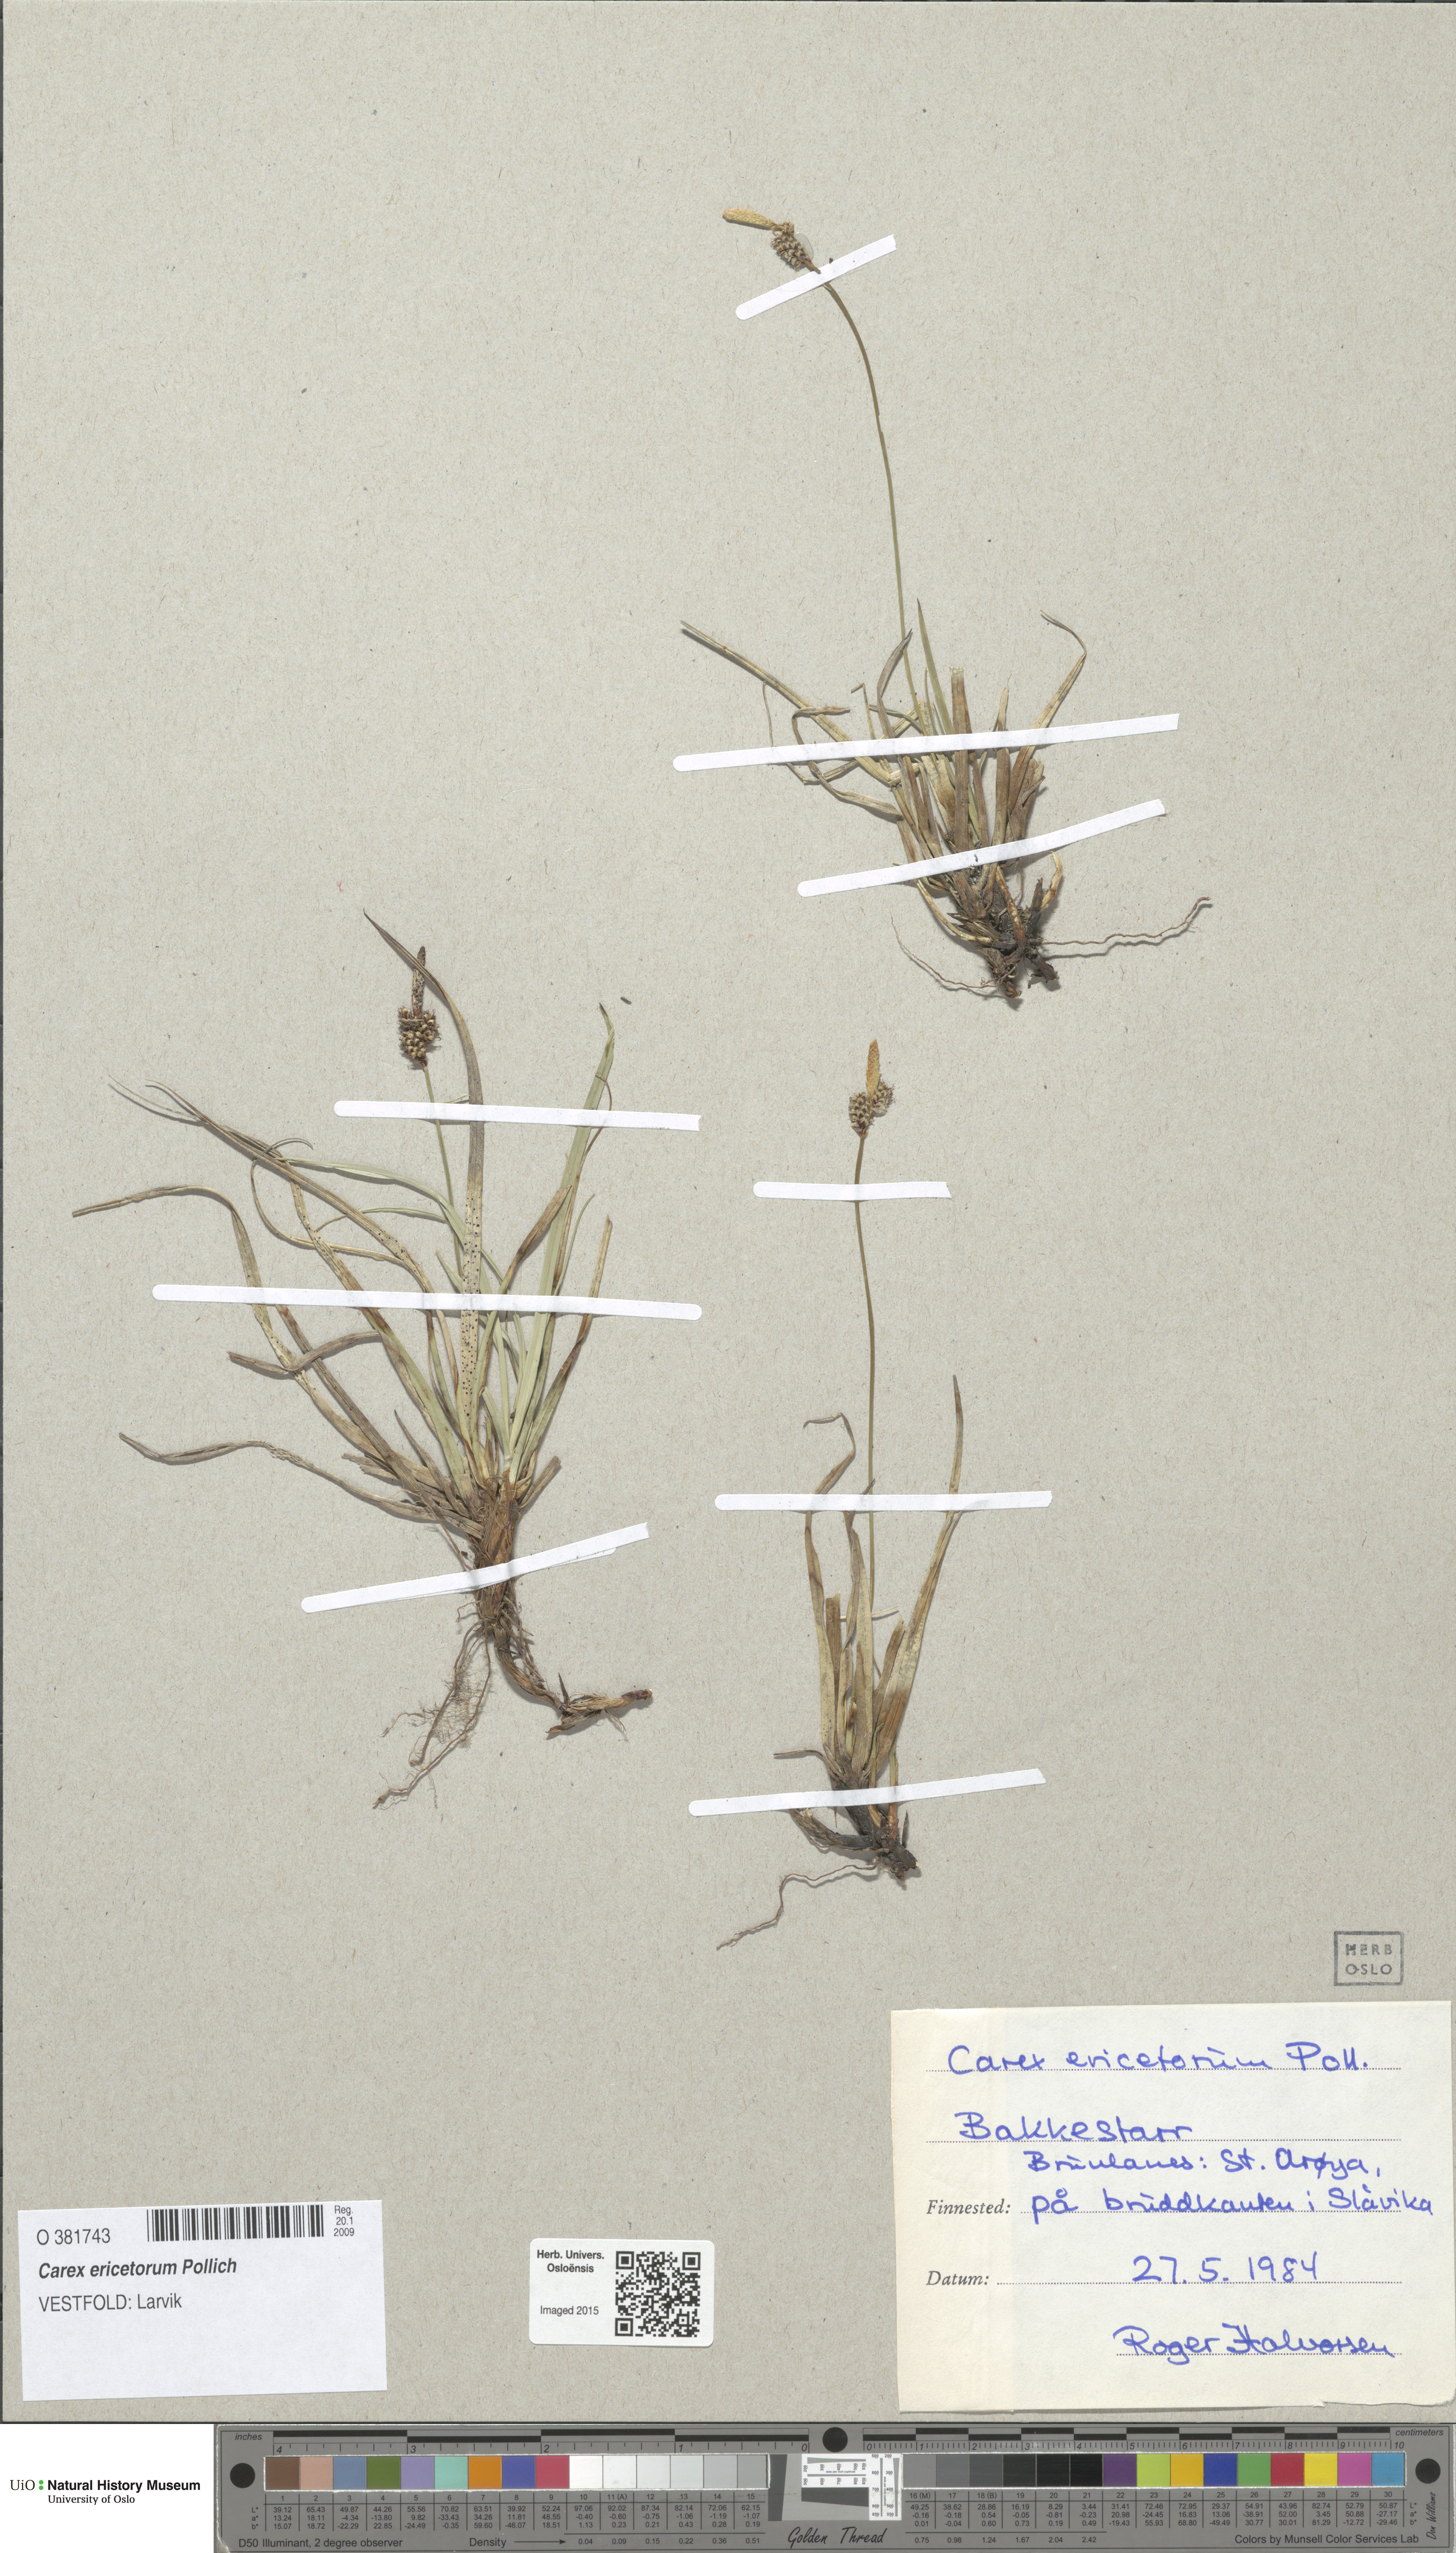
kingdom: Plantae
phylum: Tracheophyta
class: Liliopsida
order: Poales
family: Cyperaceae
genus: Carex
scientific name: Carex ericetorum
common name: Rare spring-sedge
